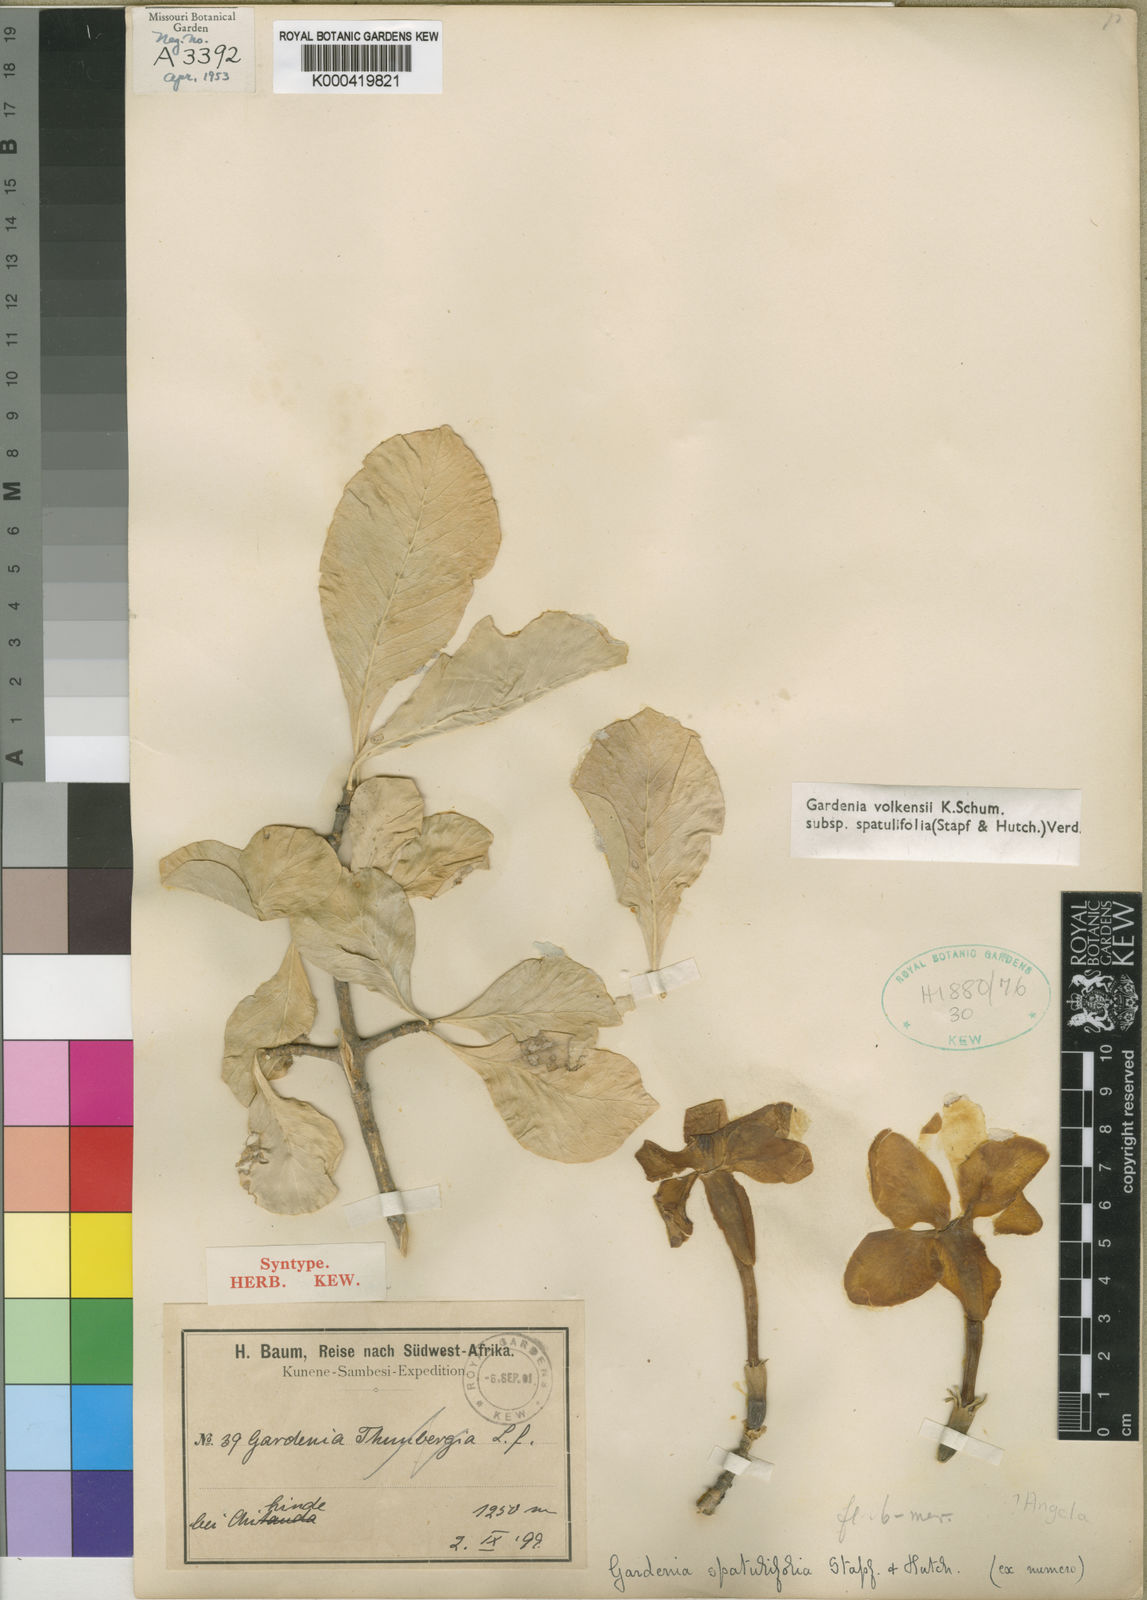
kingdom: Plantae
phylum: Tracheophyta
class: Magnoliopsida
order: Gentianales
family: Rubiaceae
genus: Gardenia
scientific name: Gardenia volkensii
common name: Common gardenia
